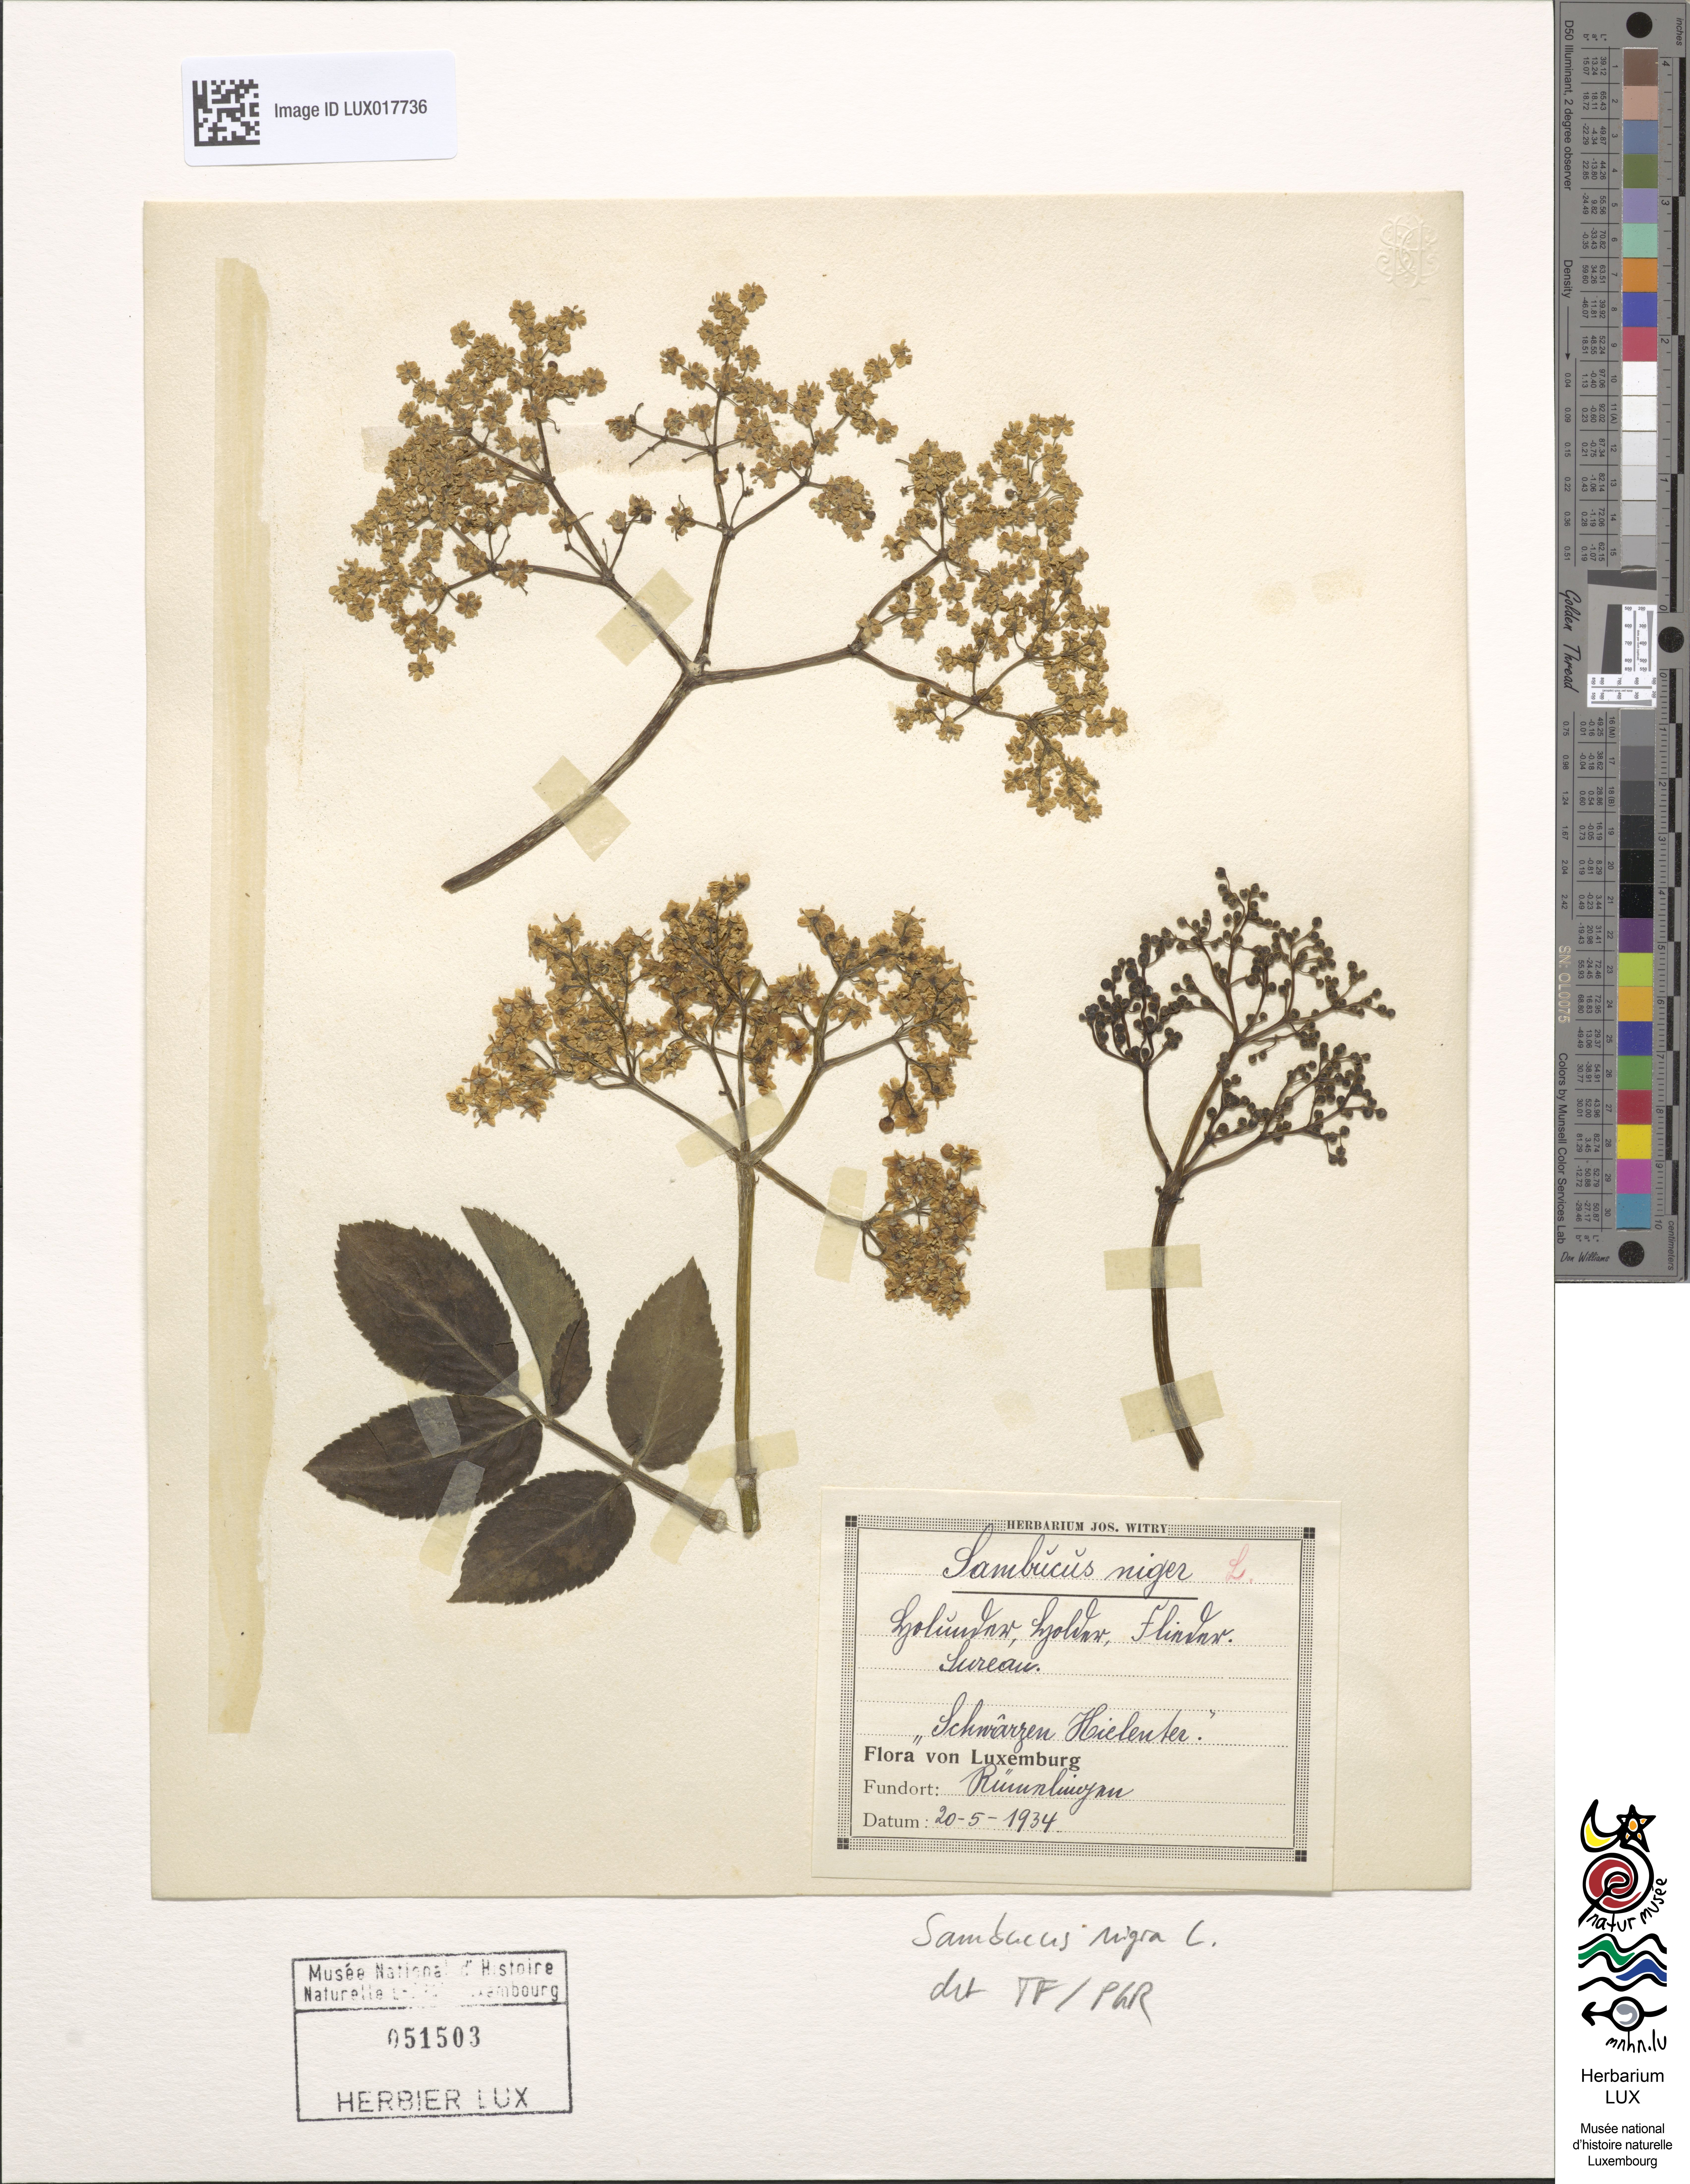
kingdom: Plantae
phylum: Tracheophyta
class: Magnoliopsida
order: Dipsacales
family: Viburnaceae
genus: Sambucus
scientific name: Sambucus nigra
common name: Elder
